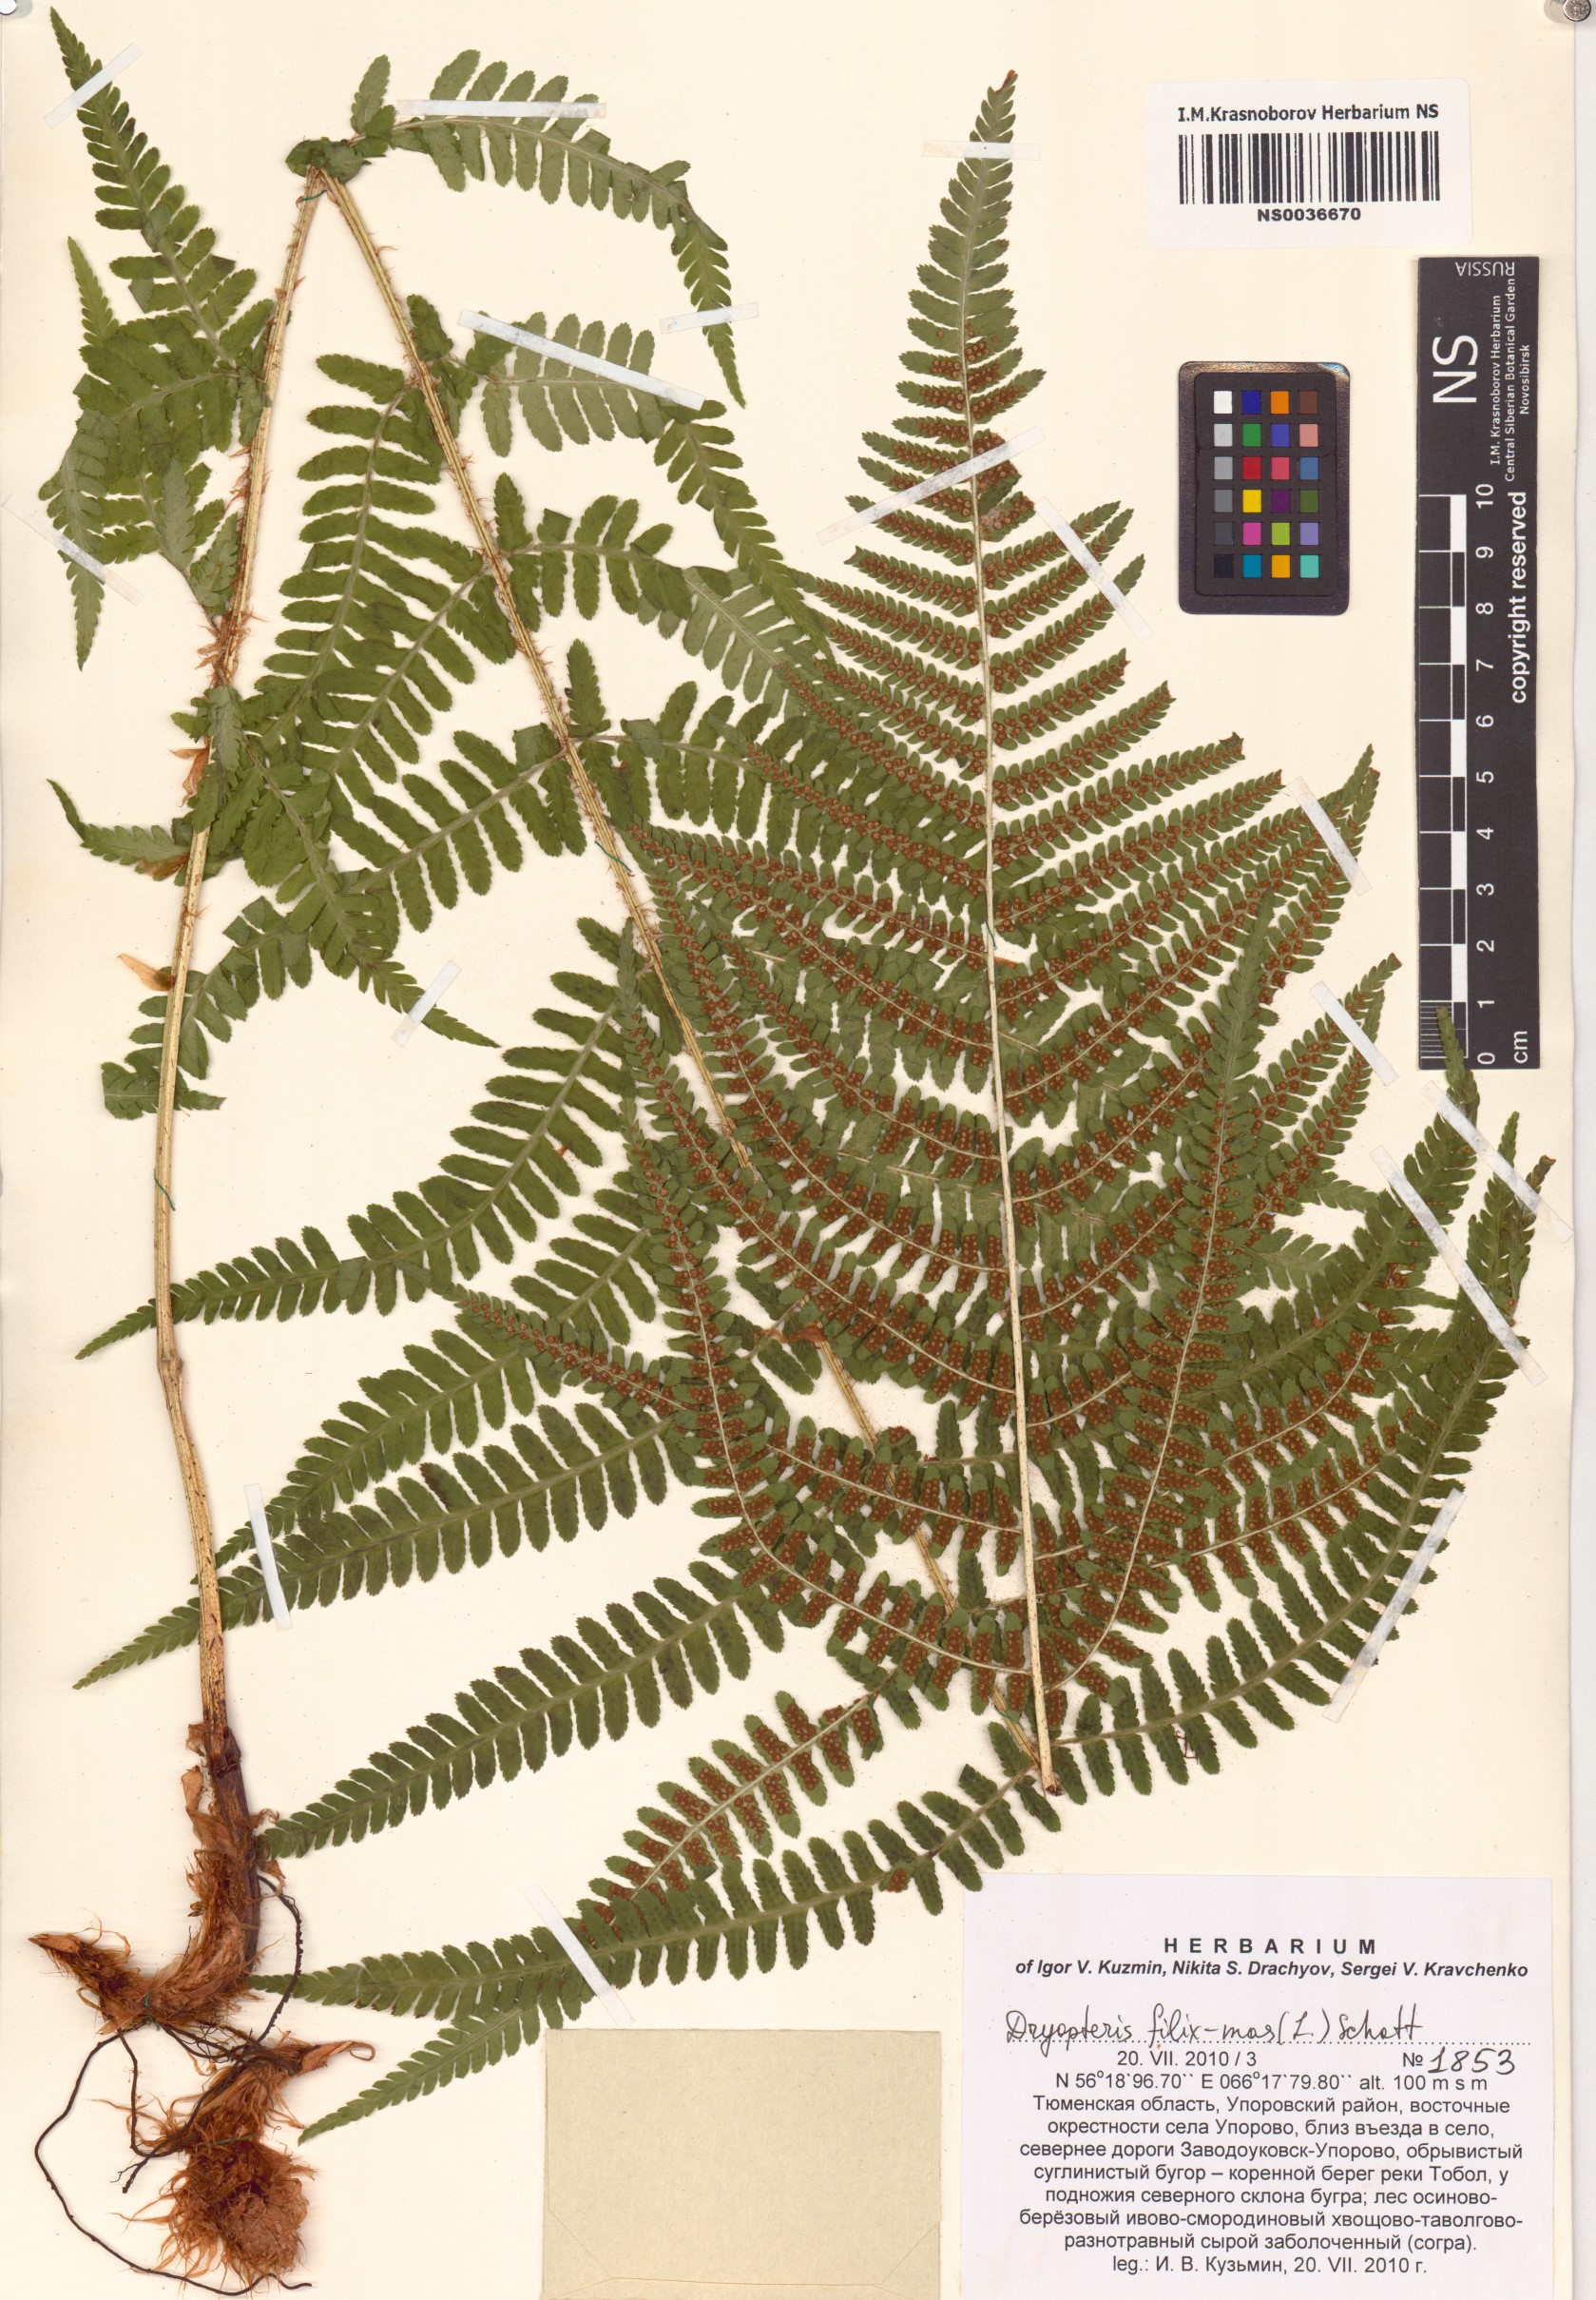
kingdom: Plantae
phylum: Tracheophyta
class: Polypodiopsida
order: Polypodiales
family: Dryopteridaceae
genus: Dryopteris
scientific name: Dryopteris filix-mas
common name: Male fern
